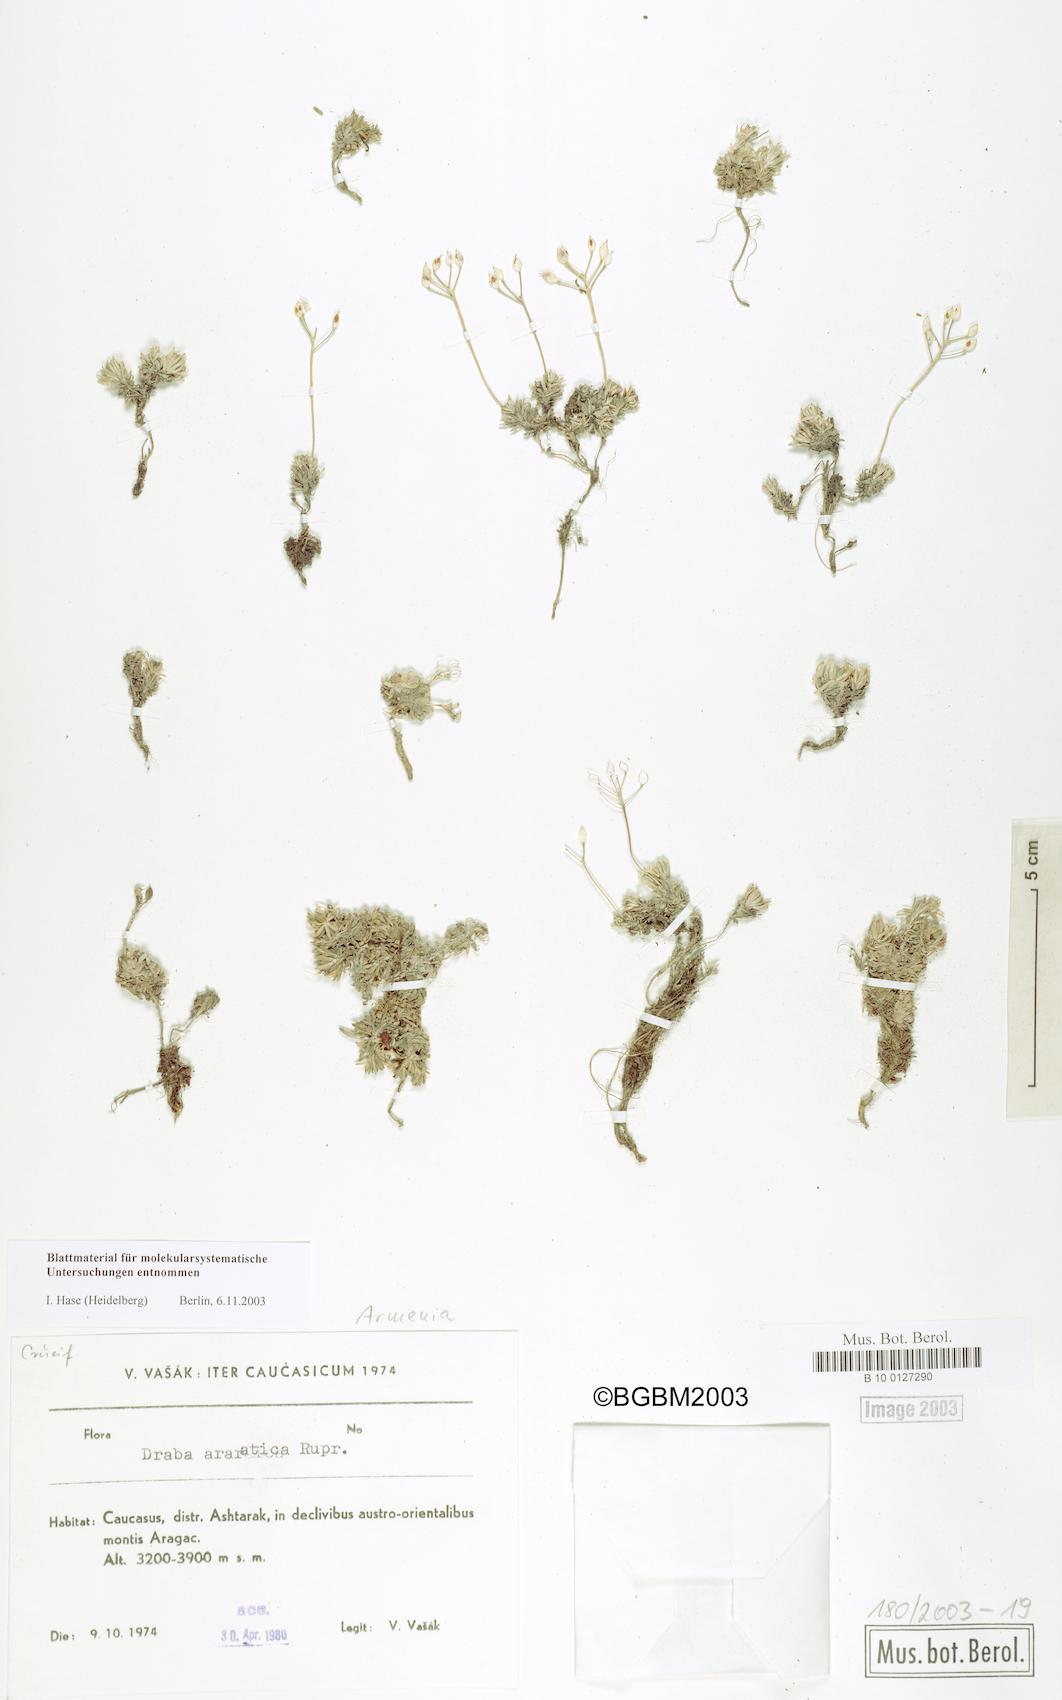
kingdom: Plantae
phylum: Tracheophyta
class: Magnoliopsida
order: Brassicales
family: Brassicaceae
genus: Draba
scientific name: Draba araratica
